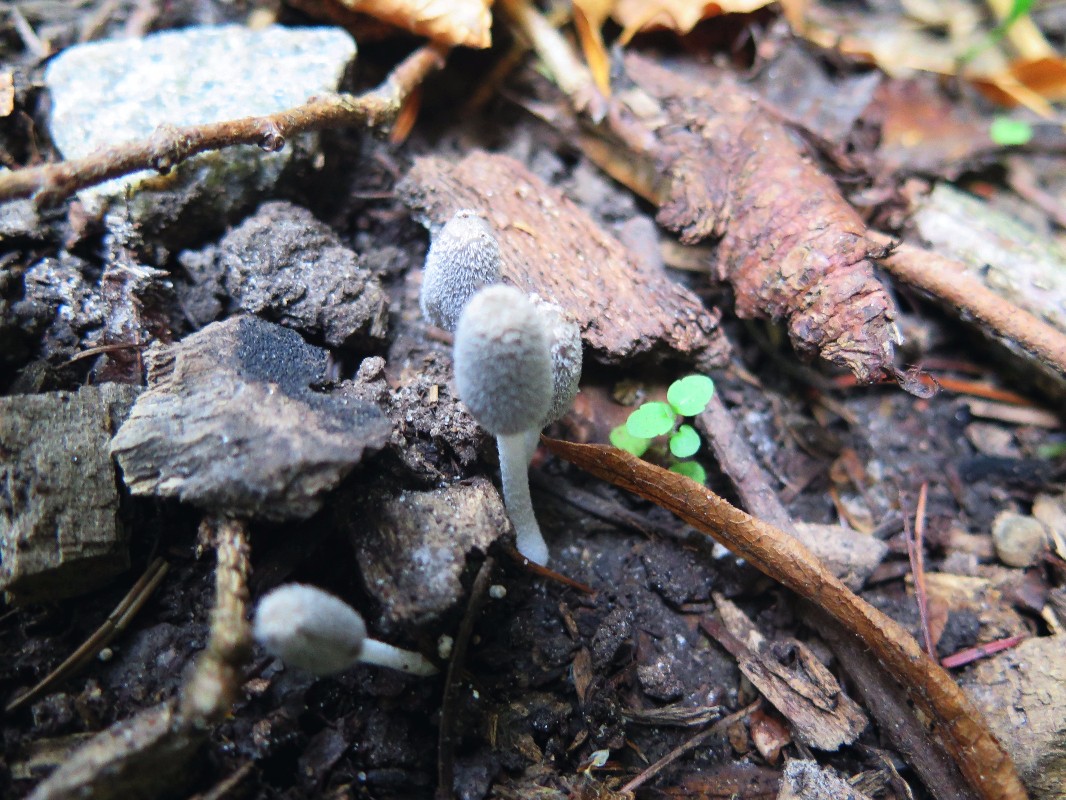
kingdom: Fungi
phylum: Basidiomycota
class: Agaricomycetes
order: Agaricales
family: Psathyrellaceae
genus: Coprinopsis
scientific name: Coprinopsis lagopus
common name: dunstokket blækhat
